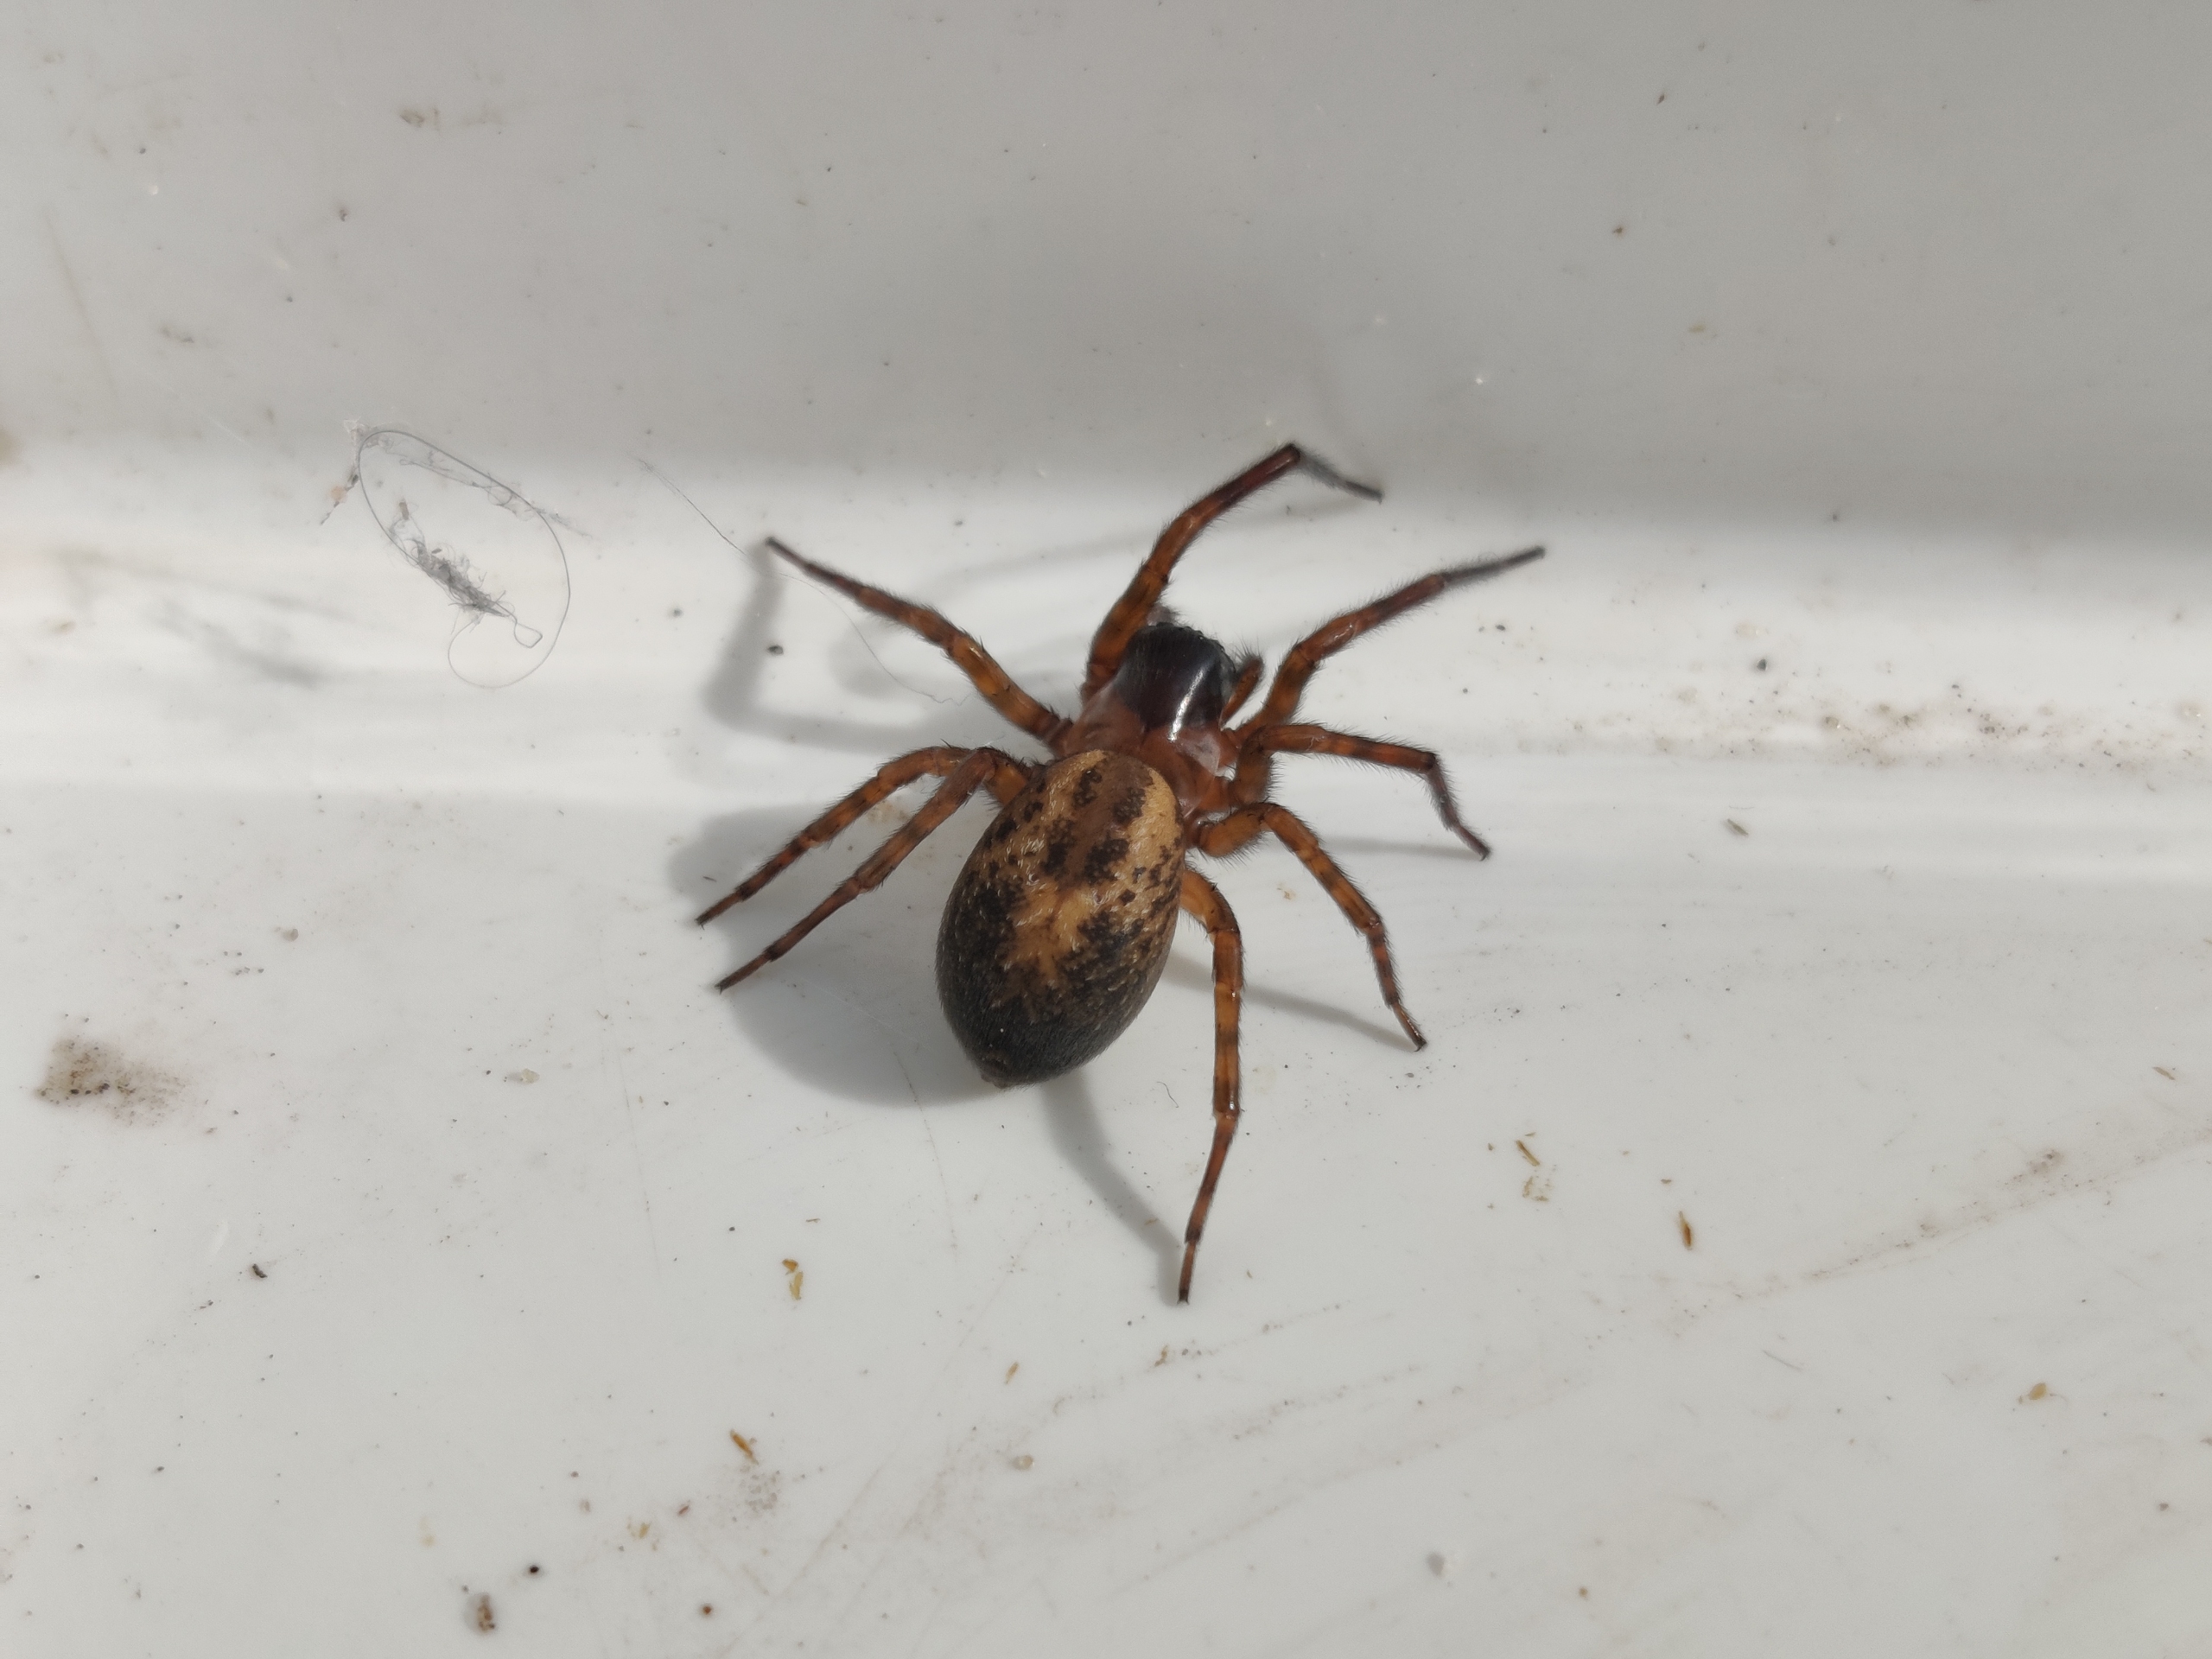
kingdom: Animalia
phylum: Arthropoda
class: Arachnida
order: Araneae
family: Amaurobiidae
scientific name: Amaurobiidae
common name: Huskartespindere
